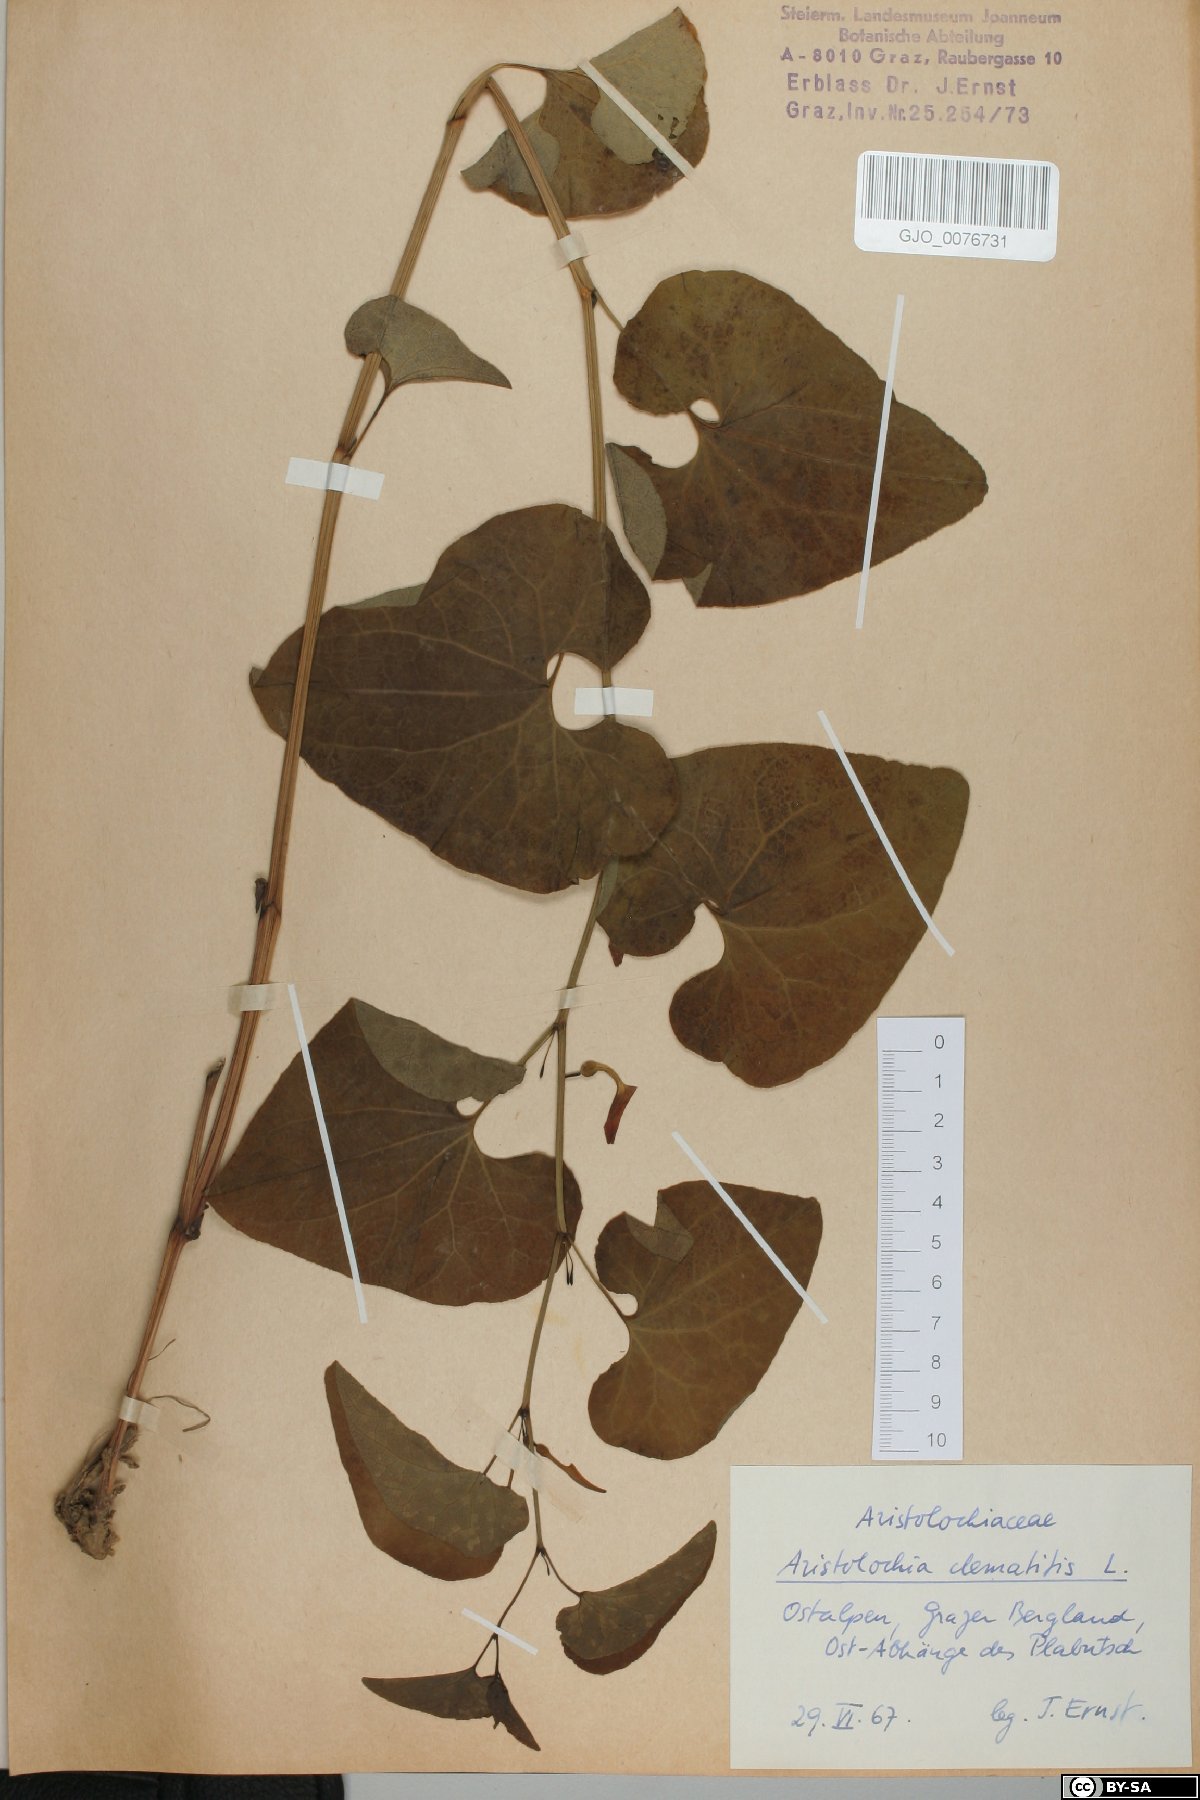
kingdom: Plantae
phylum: Tracheophyta
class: Magnoliopsida
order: Piperales
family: Aristolochiaceae
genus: Aristolochia
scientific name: Aristolochia clematitis
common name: Birthwort
